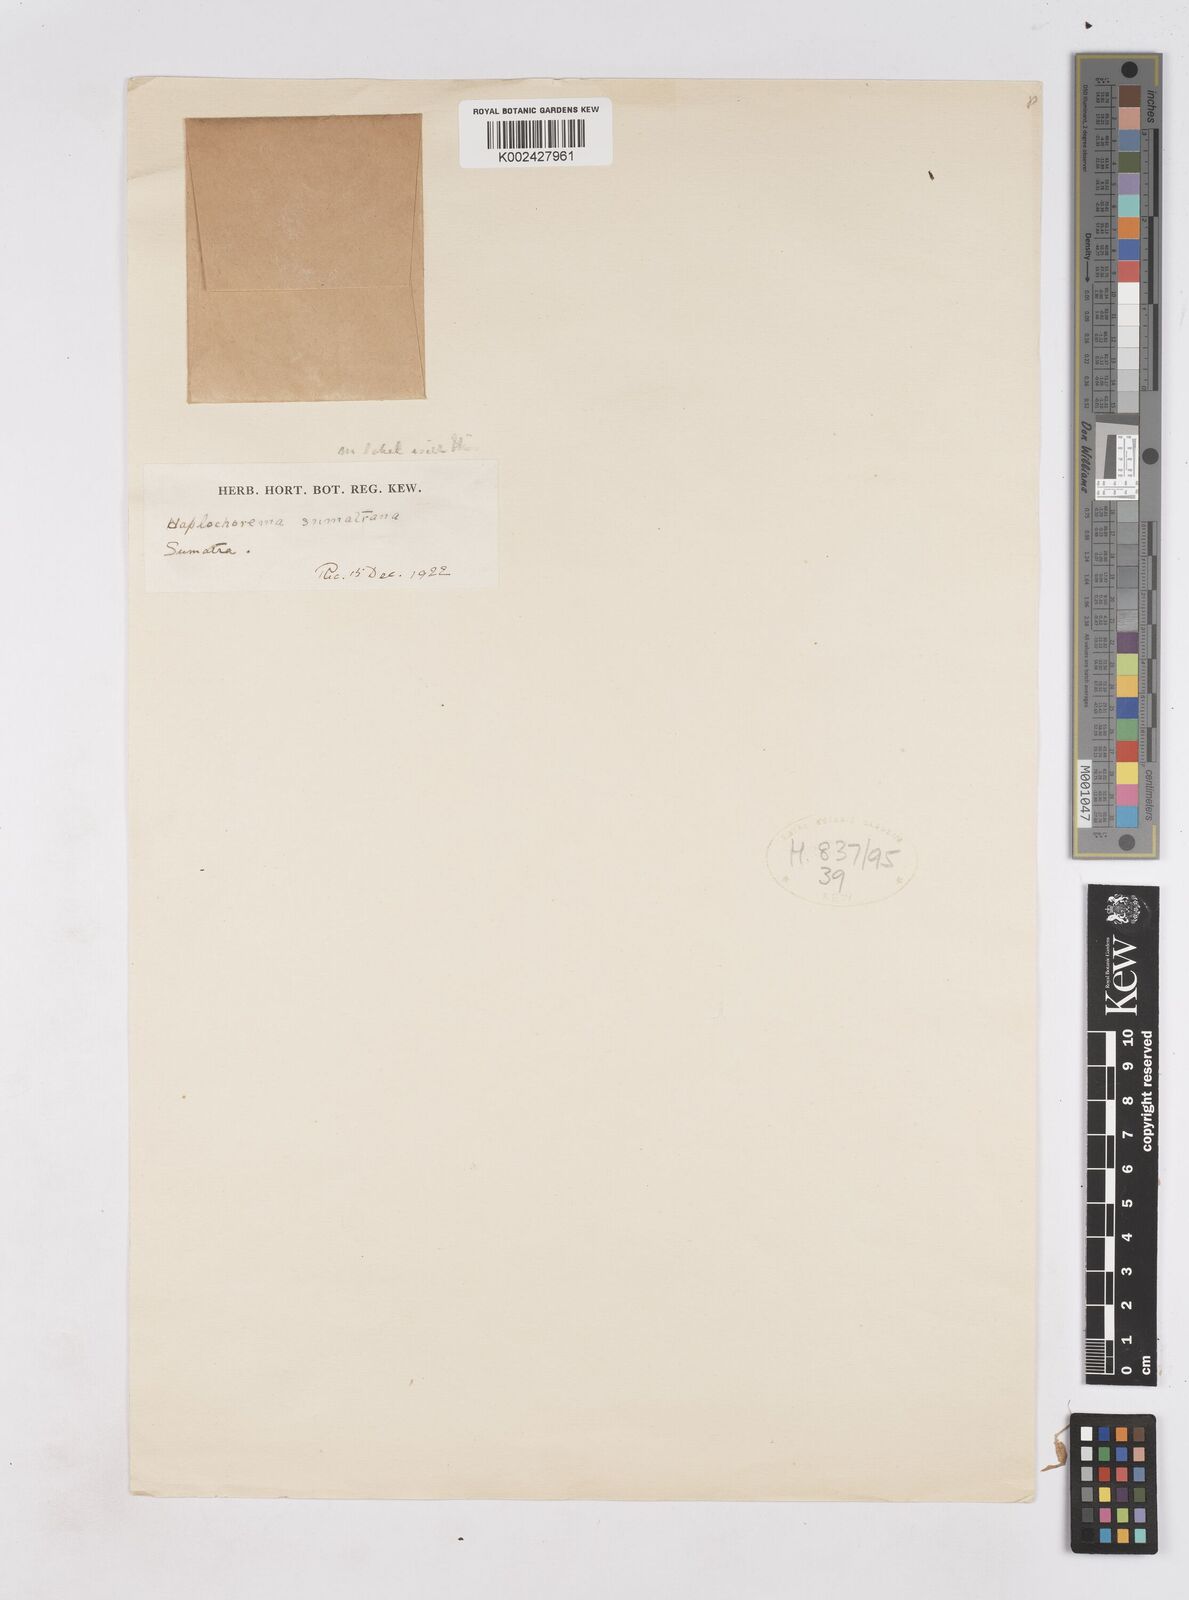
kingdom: Plantae
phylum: Tracheophyta
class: Liliopsida
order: Zingiberales
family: Zingiberaceae
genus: Boesenbergia
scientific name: Boesenbergia
